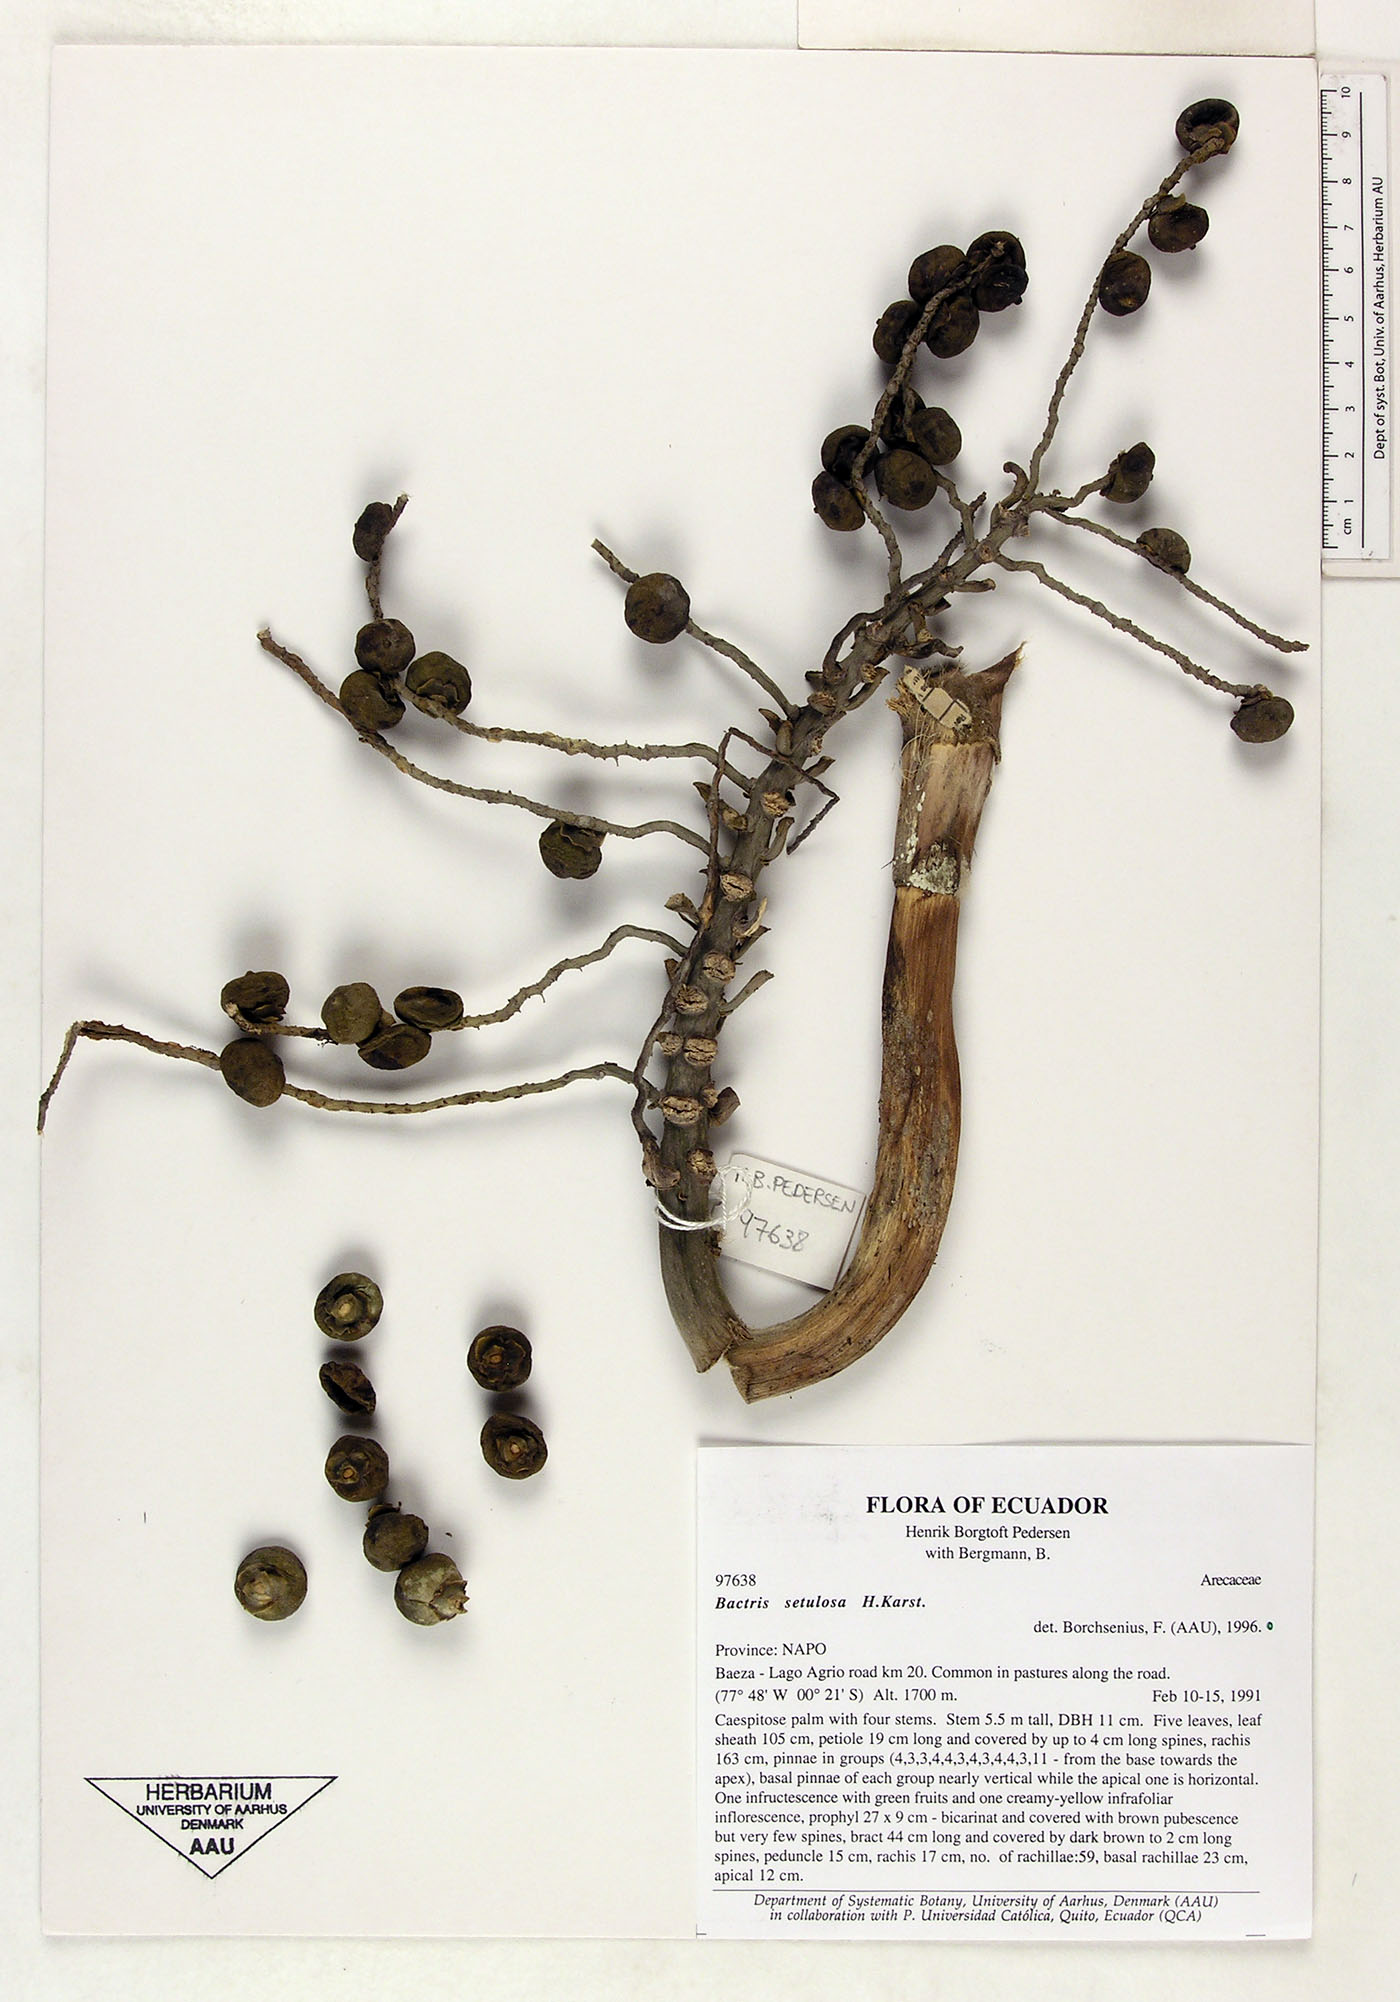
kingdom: Plantae
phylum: Tracheophyta
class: Liliopsida
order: Arecales
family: Arecaceae
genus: Bactris
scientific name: Bactris setulosa
